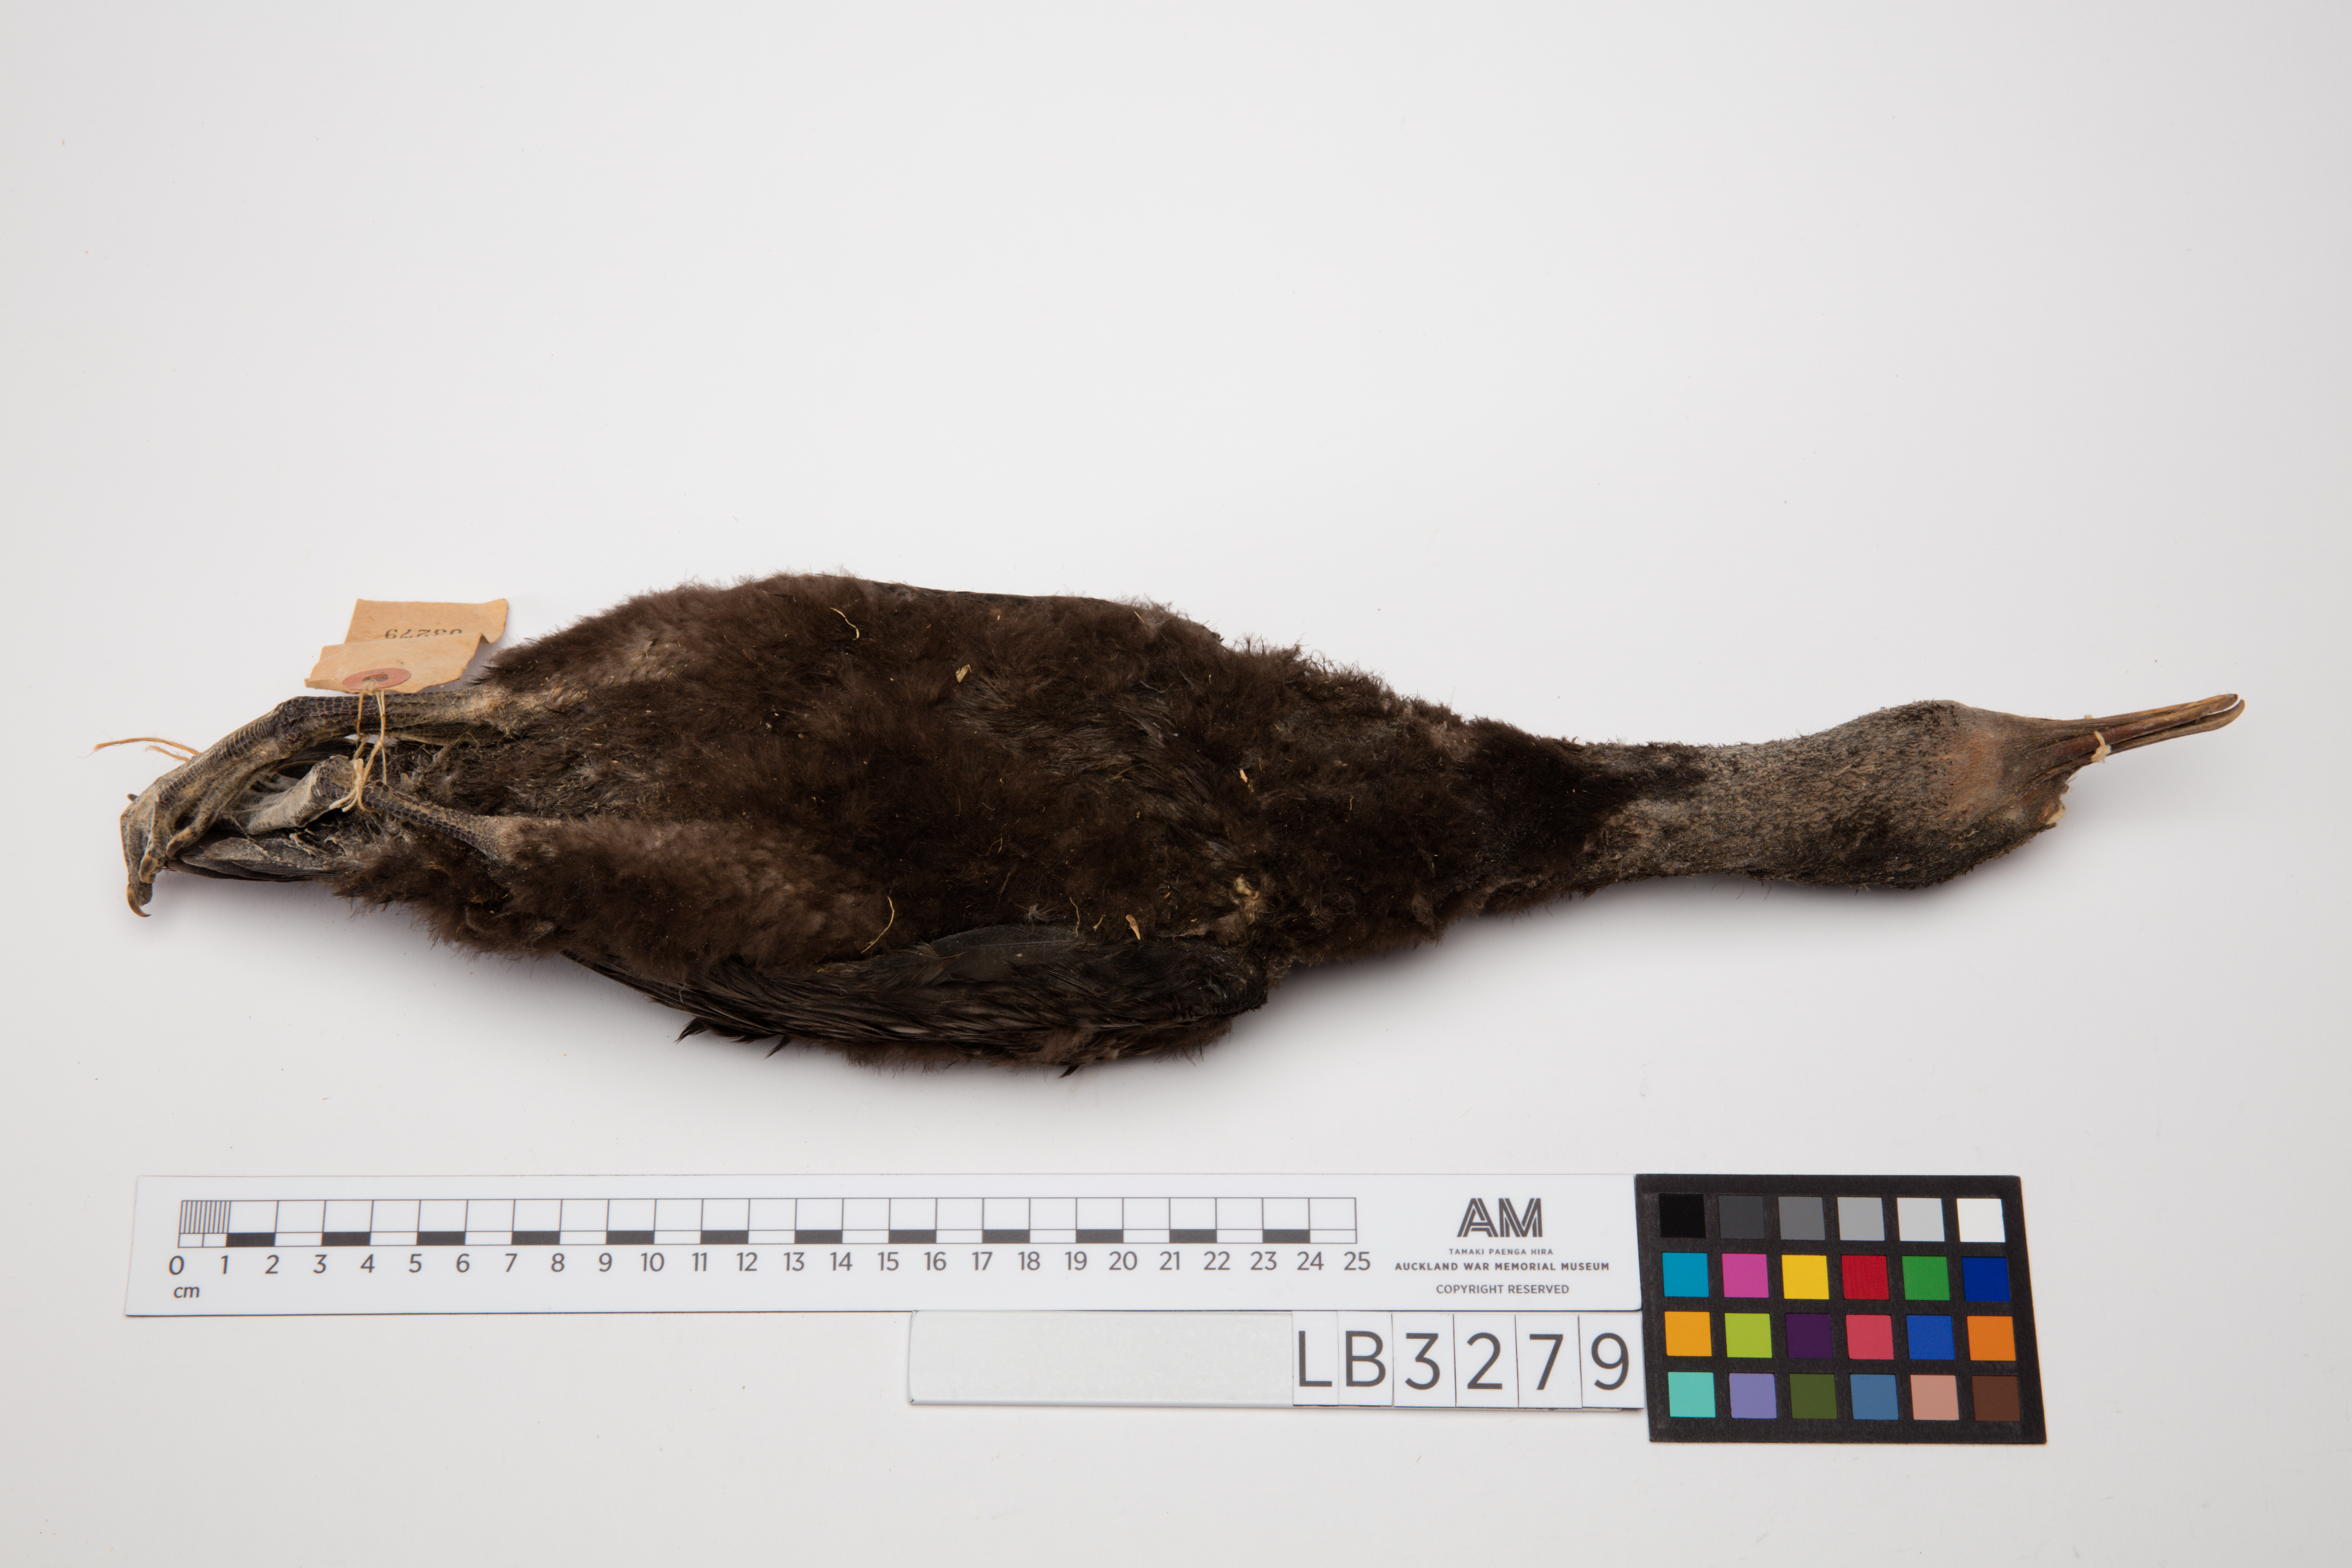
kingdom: Animalia
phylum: Chordata
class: Aves
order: Suliformes
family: Phalacrocoracidae
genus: Phalacrocorax
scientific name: Phalacrocorax sulcirostris
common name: Little black cormorant
